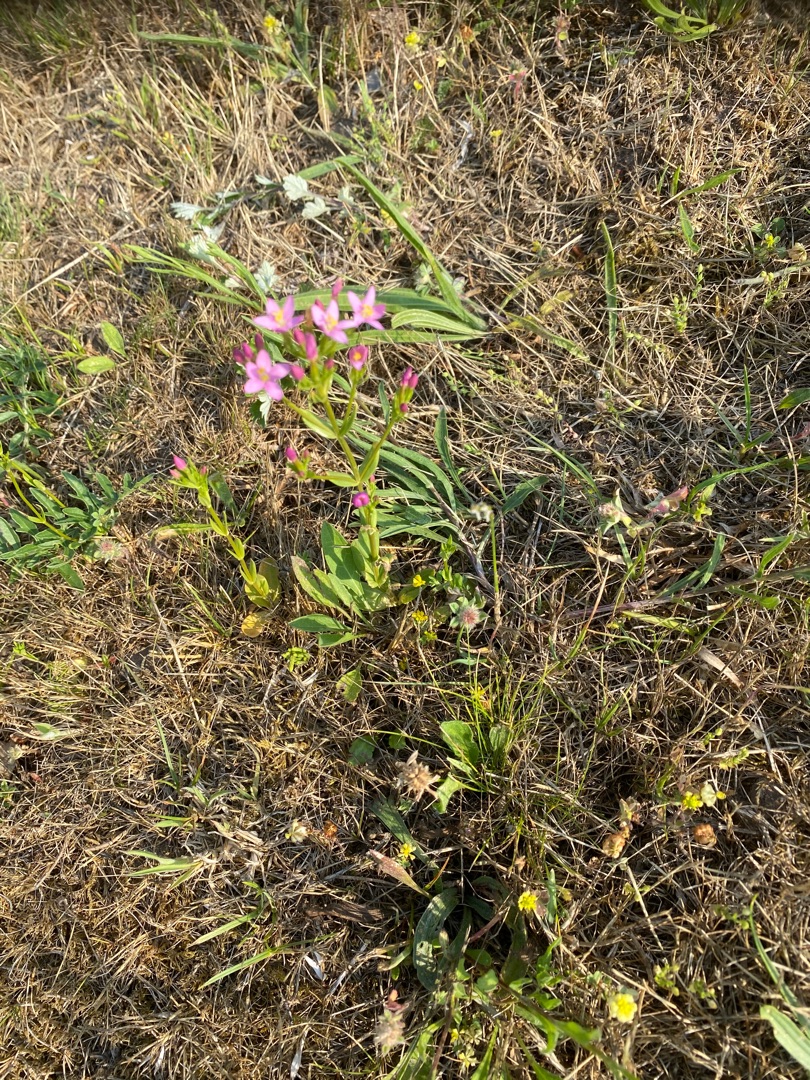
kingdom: Plantae
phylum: Tracheophyta
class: Magnoliopsida
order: Gentianales
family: Gentianaceae
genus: Centaurium
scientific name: Centaurium erythraea
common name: Mark-tusindgylden
